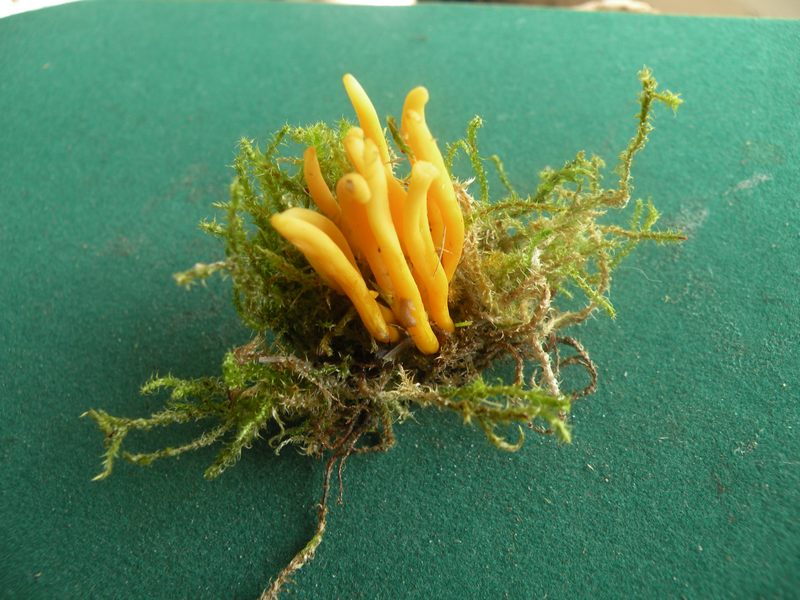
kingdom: Fungi
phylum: Basidiomycota
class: Agaricomycetes
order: Agaricales
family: Clavariaceae
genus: Clavulinopsis
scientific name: Clavulinopsis helvola
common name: orangegul køllesvamp
